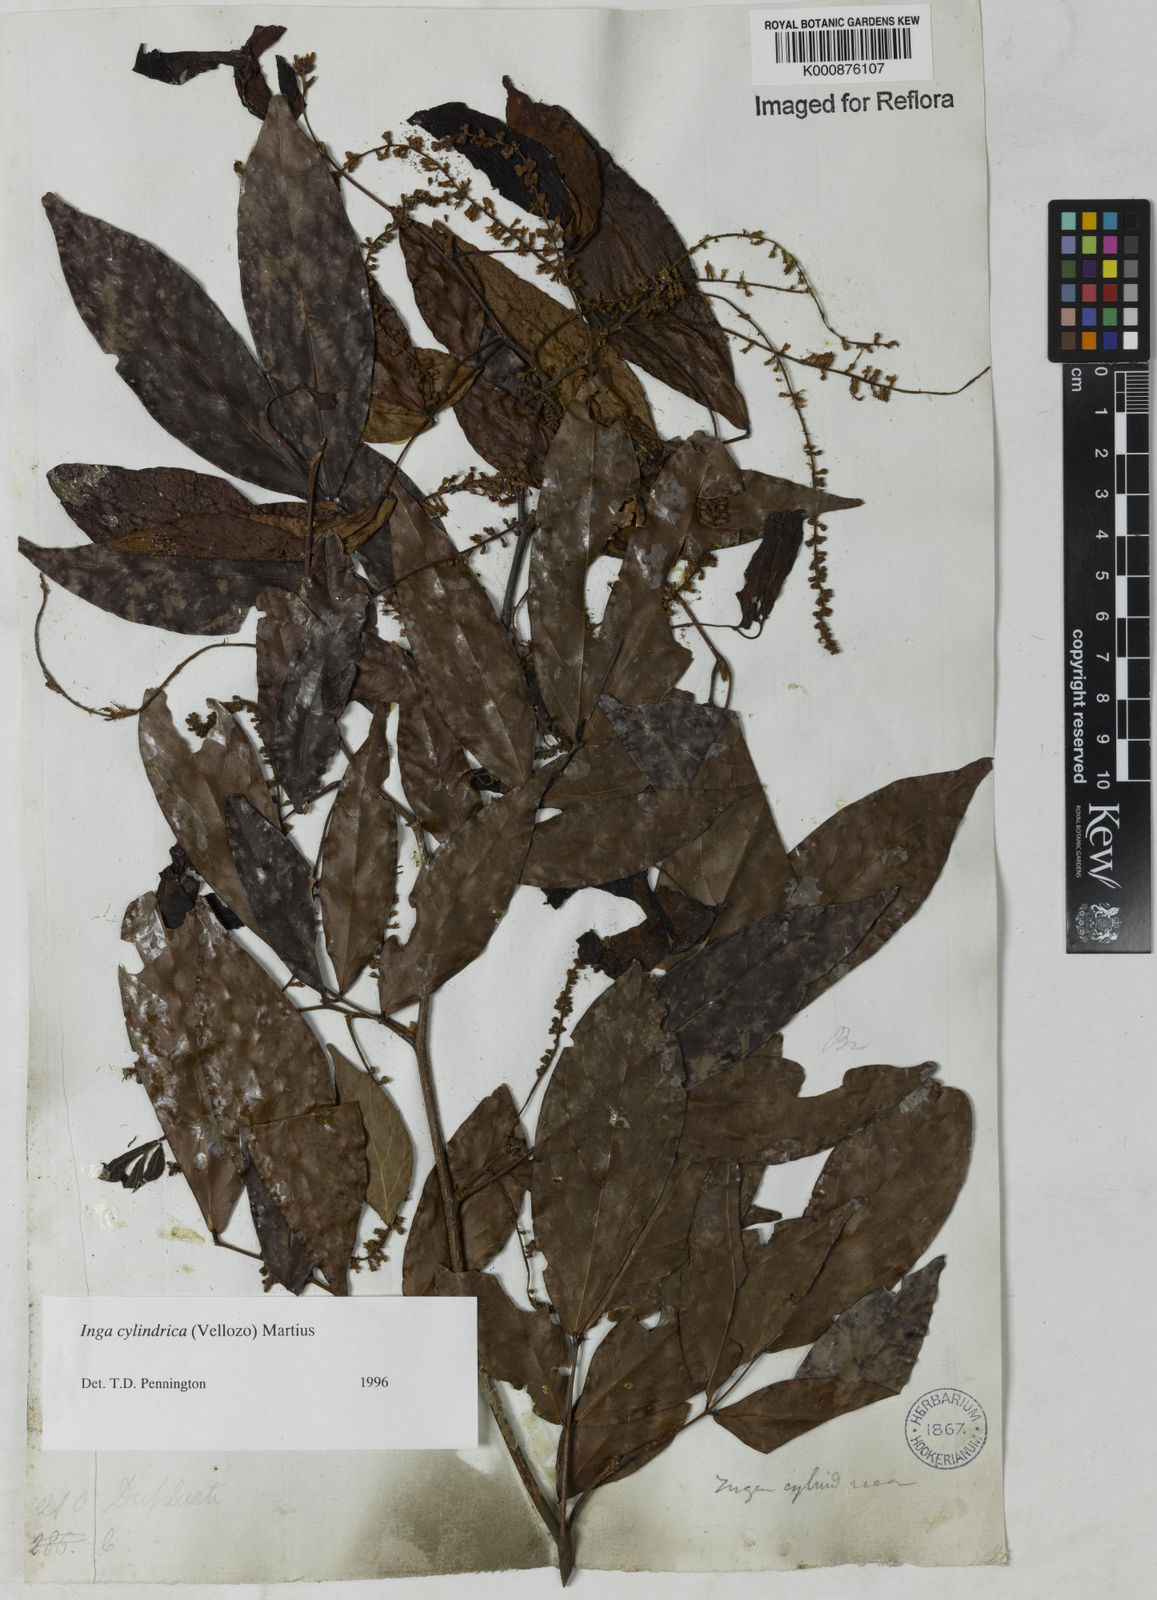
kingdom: Plantae
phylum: Tracheophyta
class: Magnoliopsida
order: Fabales
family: Fabaceae
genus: Inga
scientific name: Inga cylindrica
